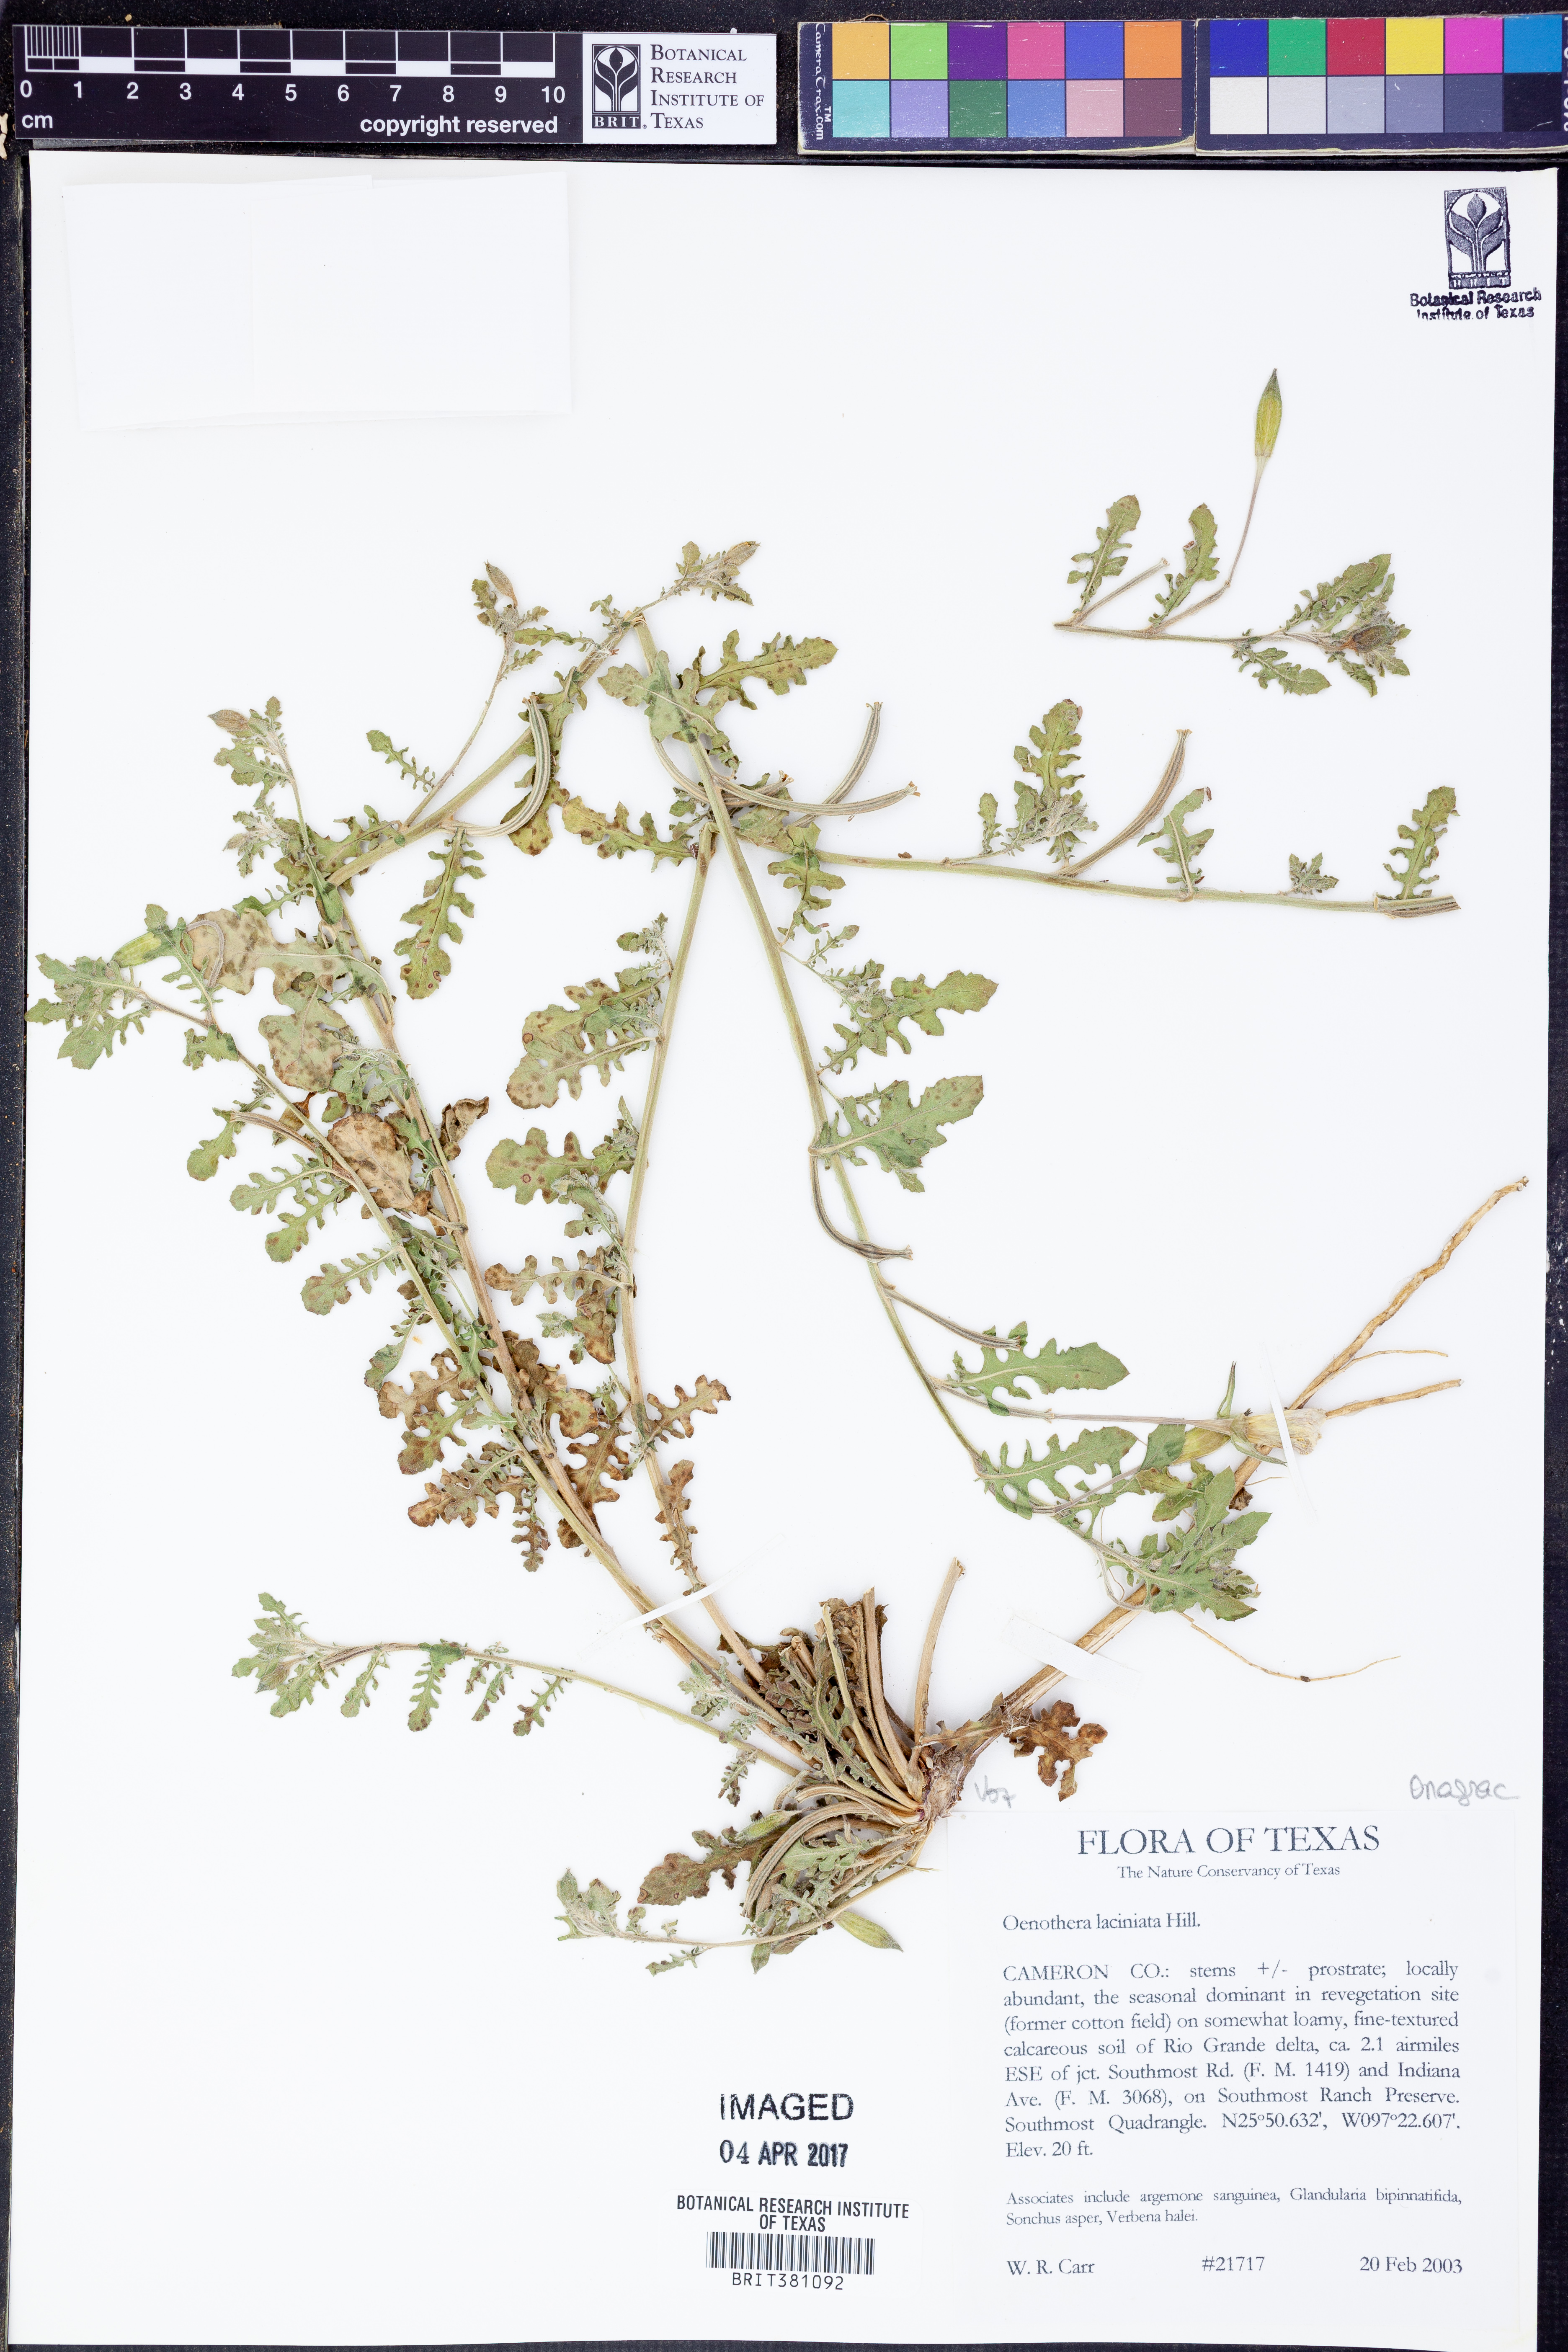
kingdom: Plantae
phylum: Tracheophyta
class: Magnoliopsida
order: Myrtales
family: Onagraceae
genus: Oenothera
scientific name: Oenothera laciniata
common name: Cut-leaved evening-primrose
